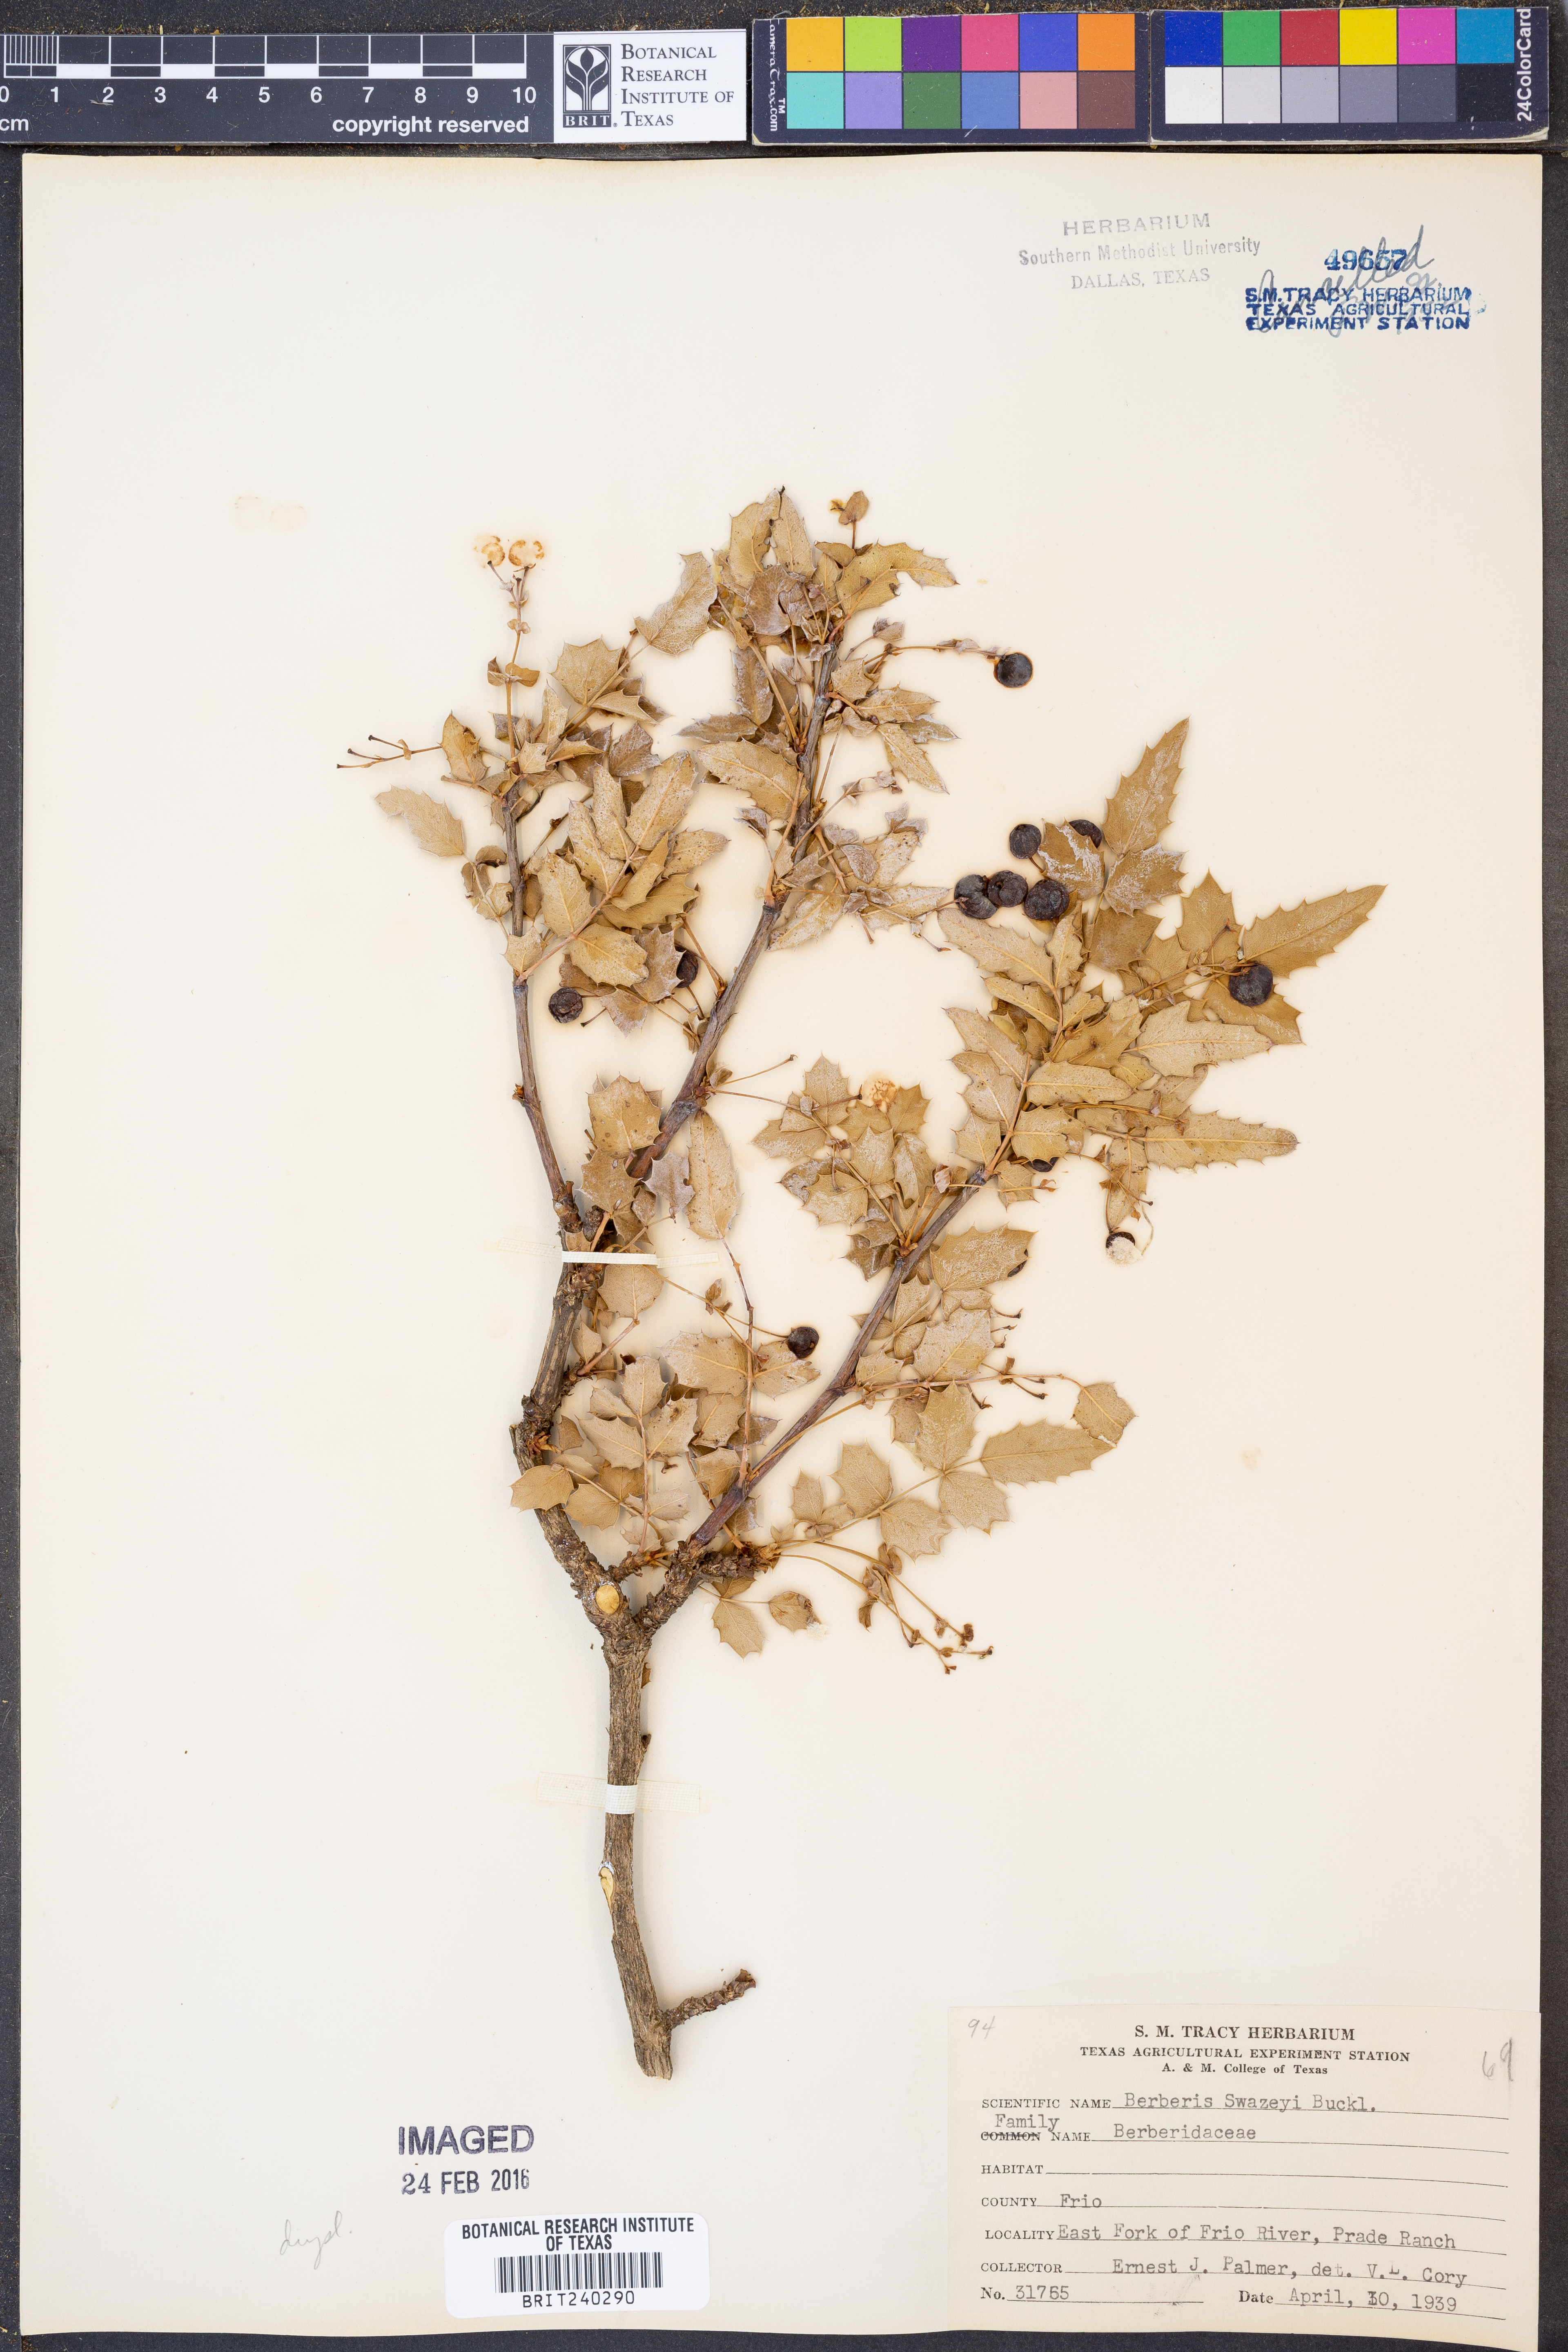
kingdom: Plantae
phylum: Tracheophyta
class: Magnoliopsida
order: Ranunculales
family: Berberidaceae
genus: Berberis
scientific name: Berberis swaseyi
